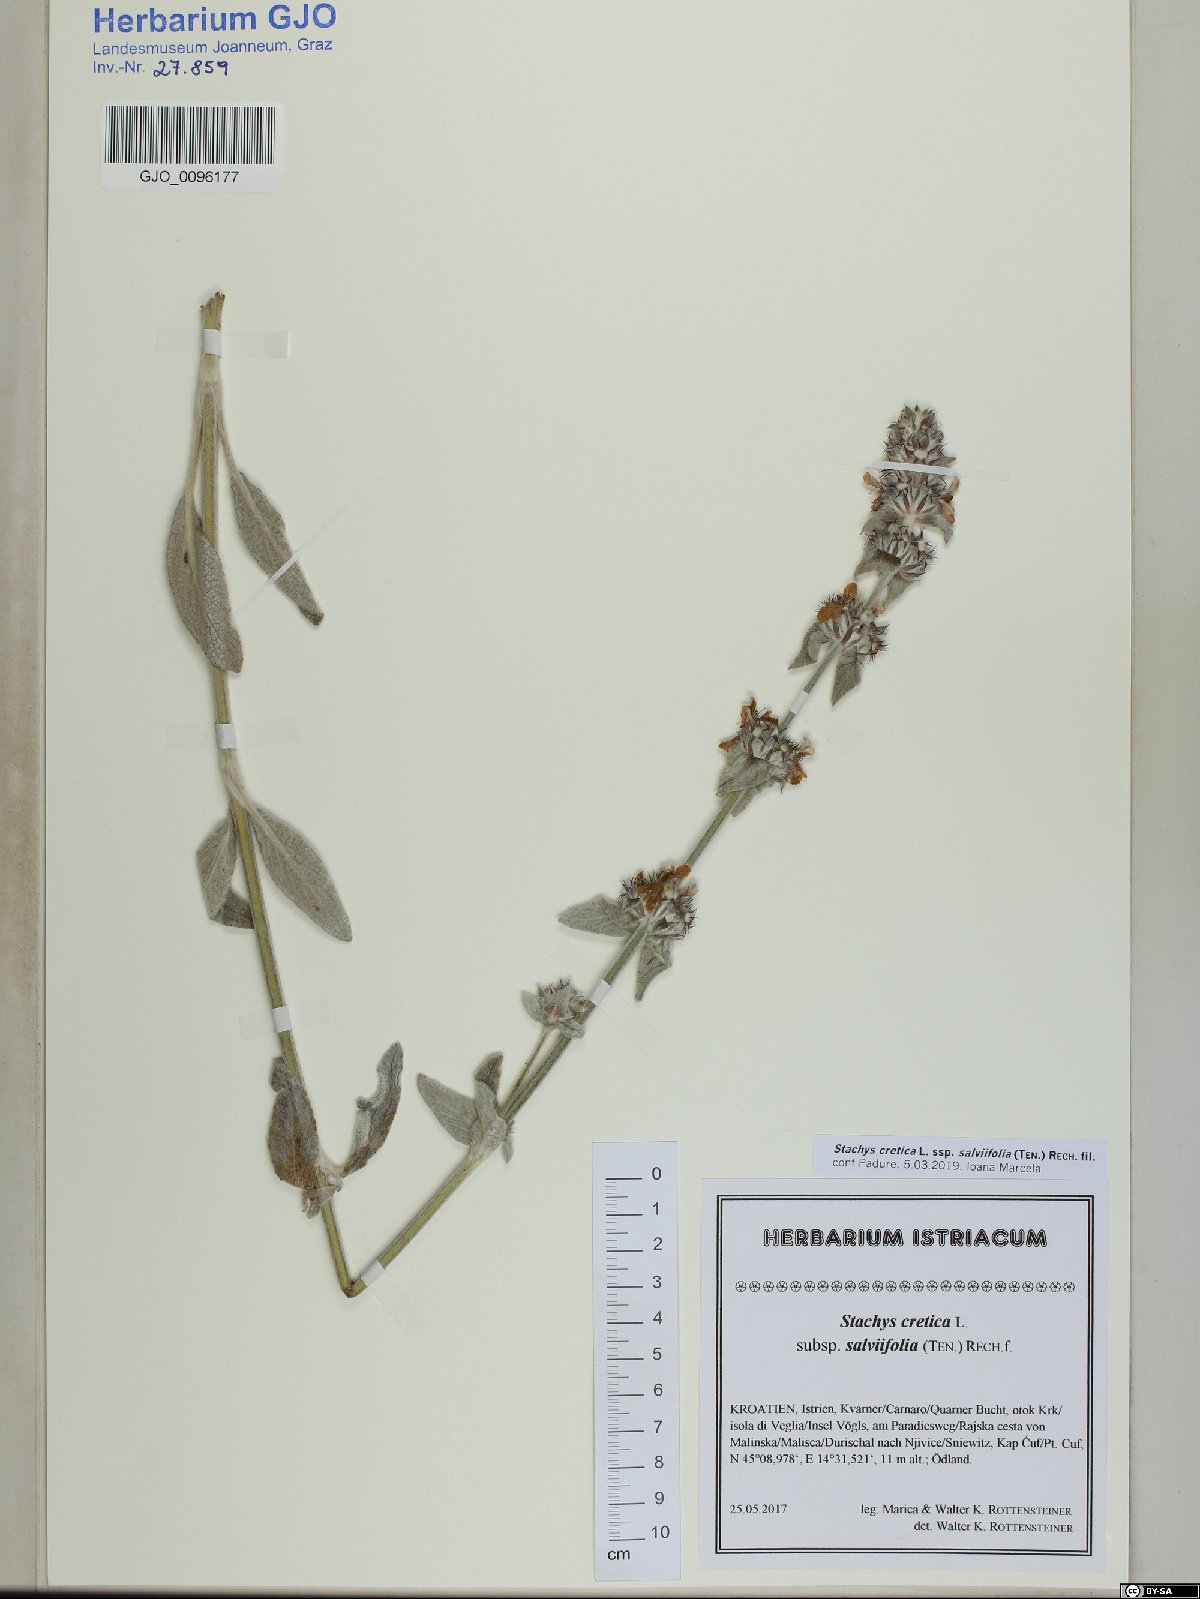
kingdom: Plantae
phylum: Tracheophyta
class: Magnoliopsida
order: Lamiales
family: Lamiaceae
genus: Stachys
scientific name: Stachys cretica
